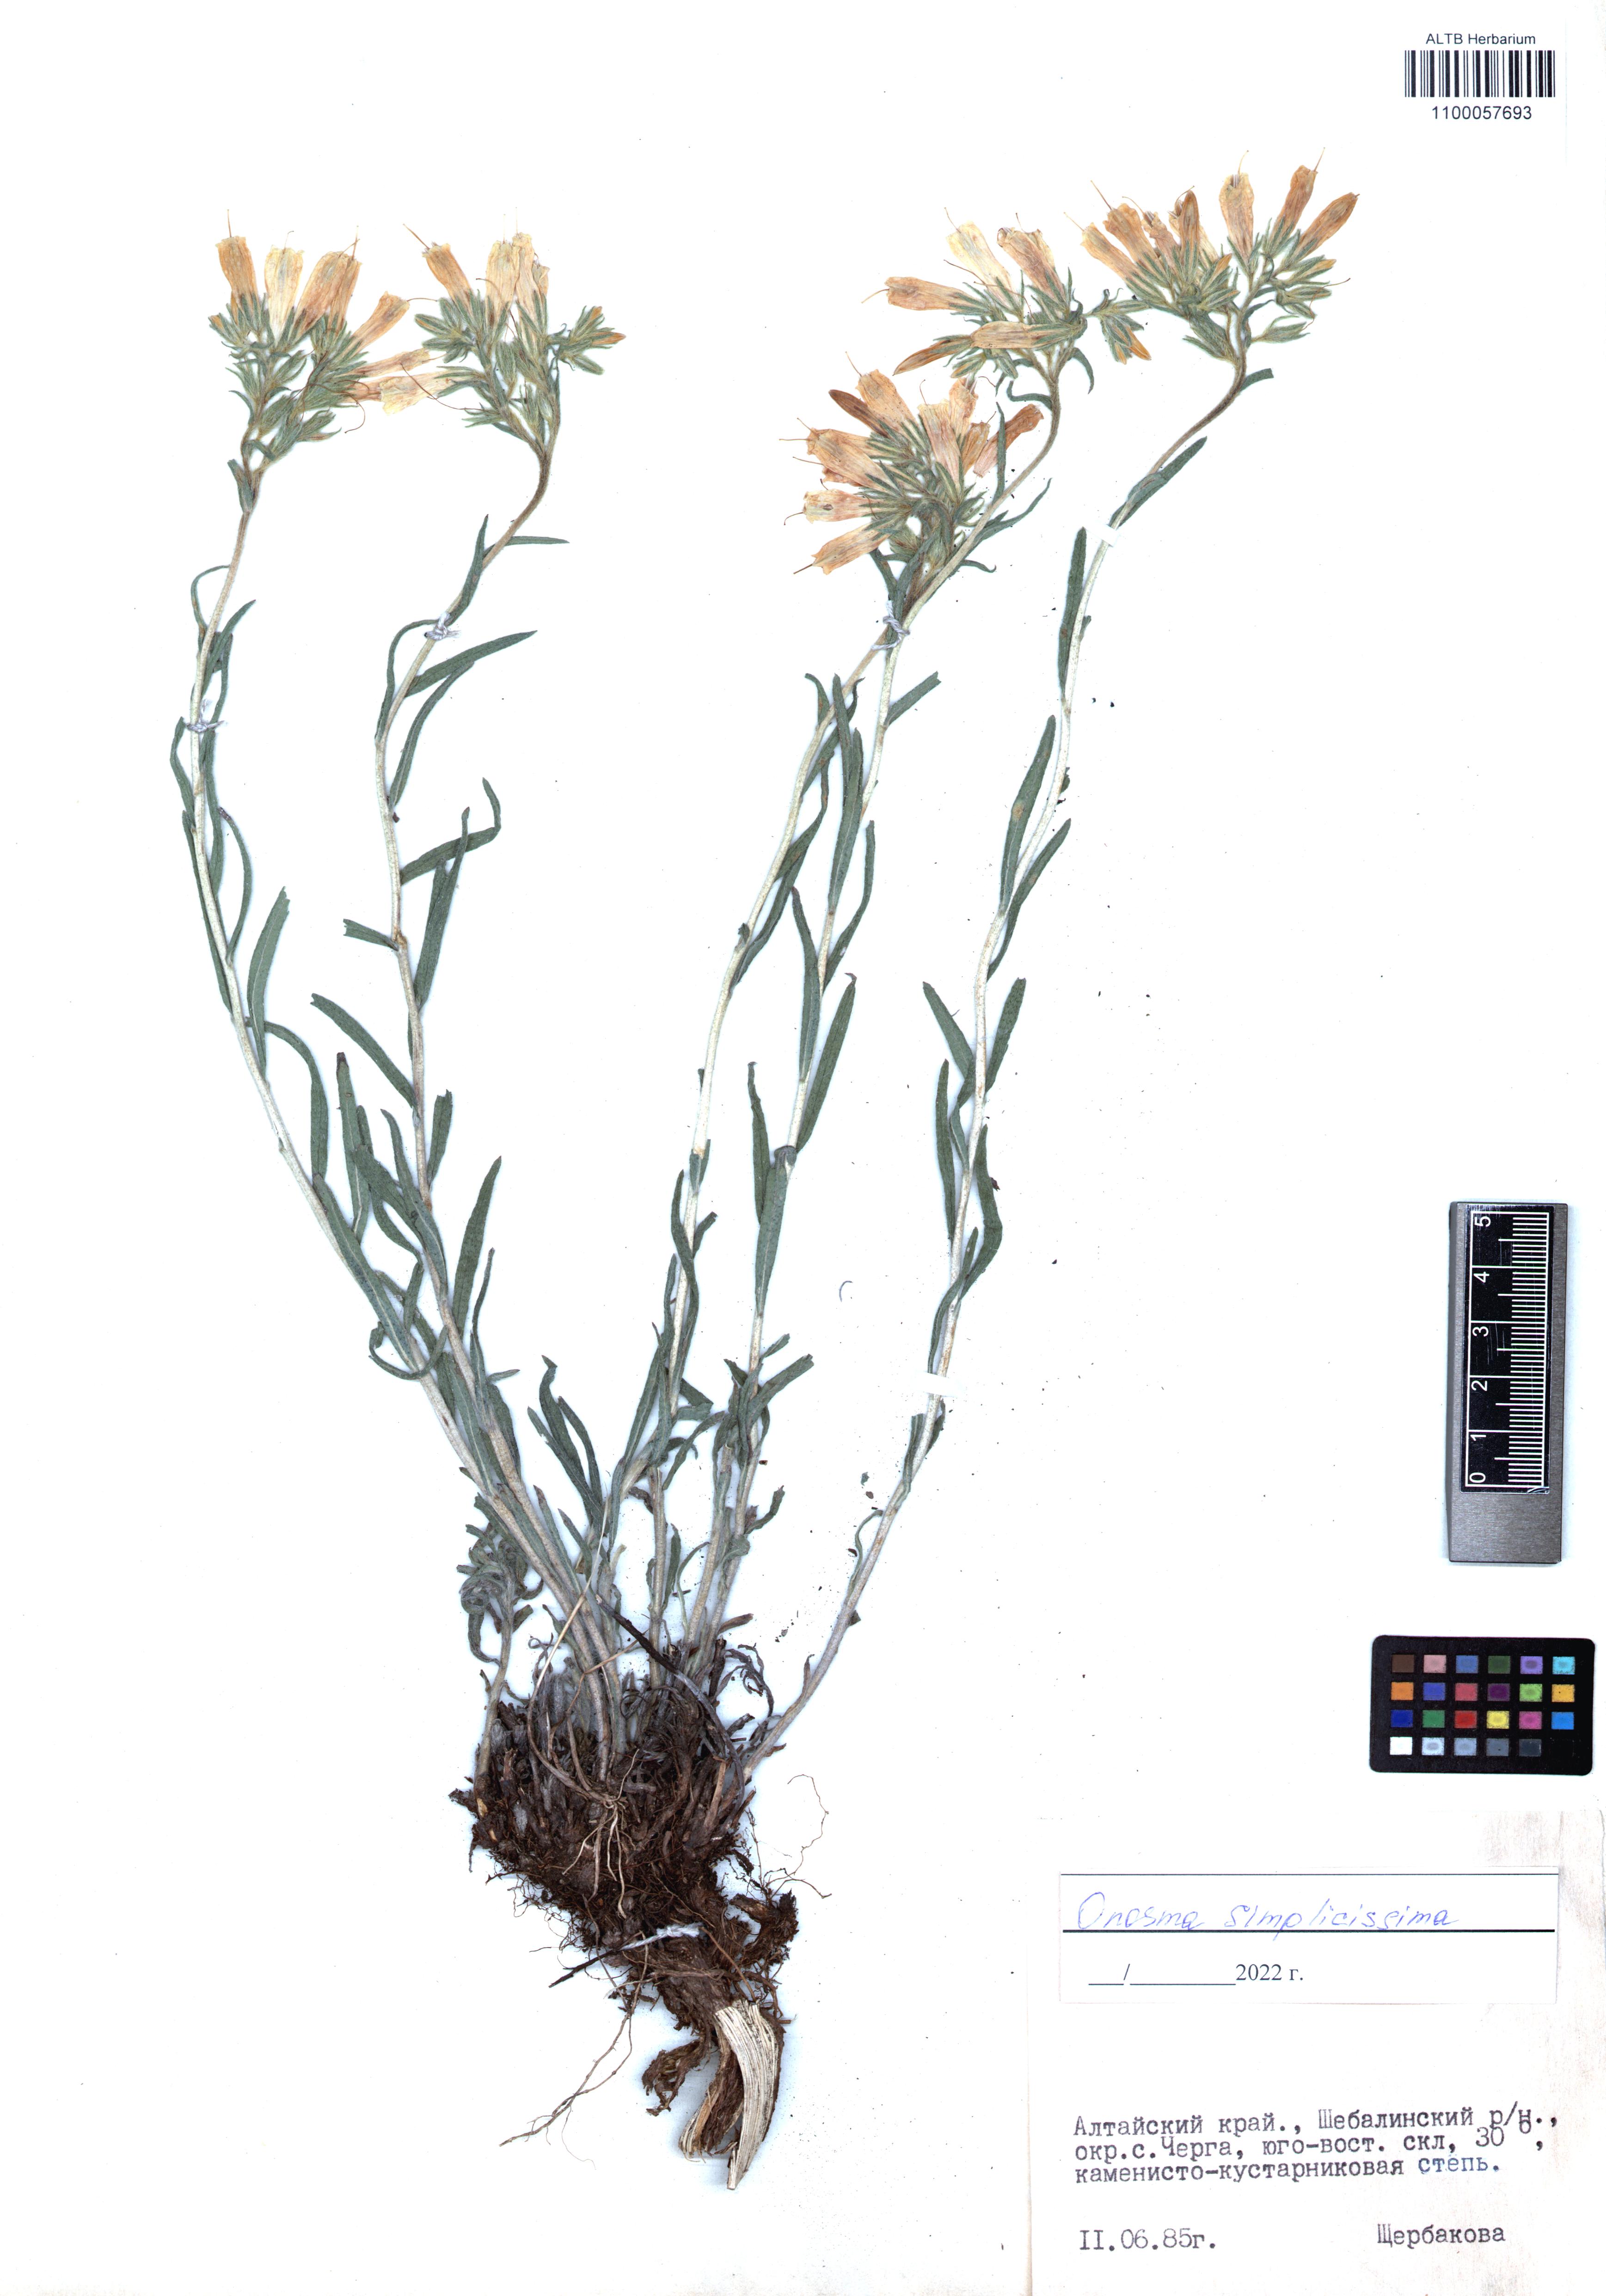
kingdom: Plantae
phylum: Tracheophyta
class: Magnoliopsida
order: Boraginales
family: Boraginaceae
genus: Onosma
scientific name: Onosma simplicissima
